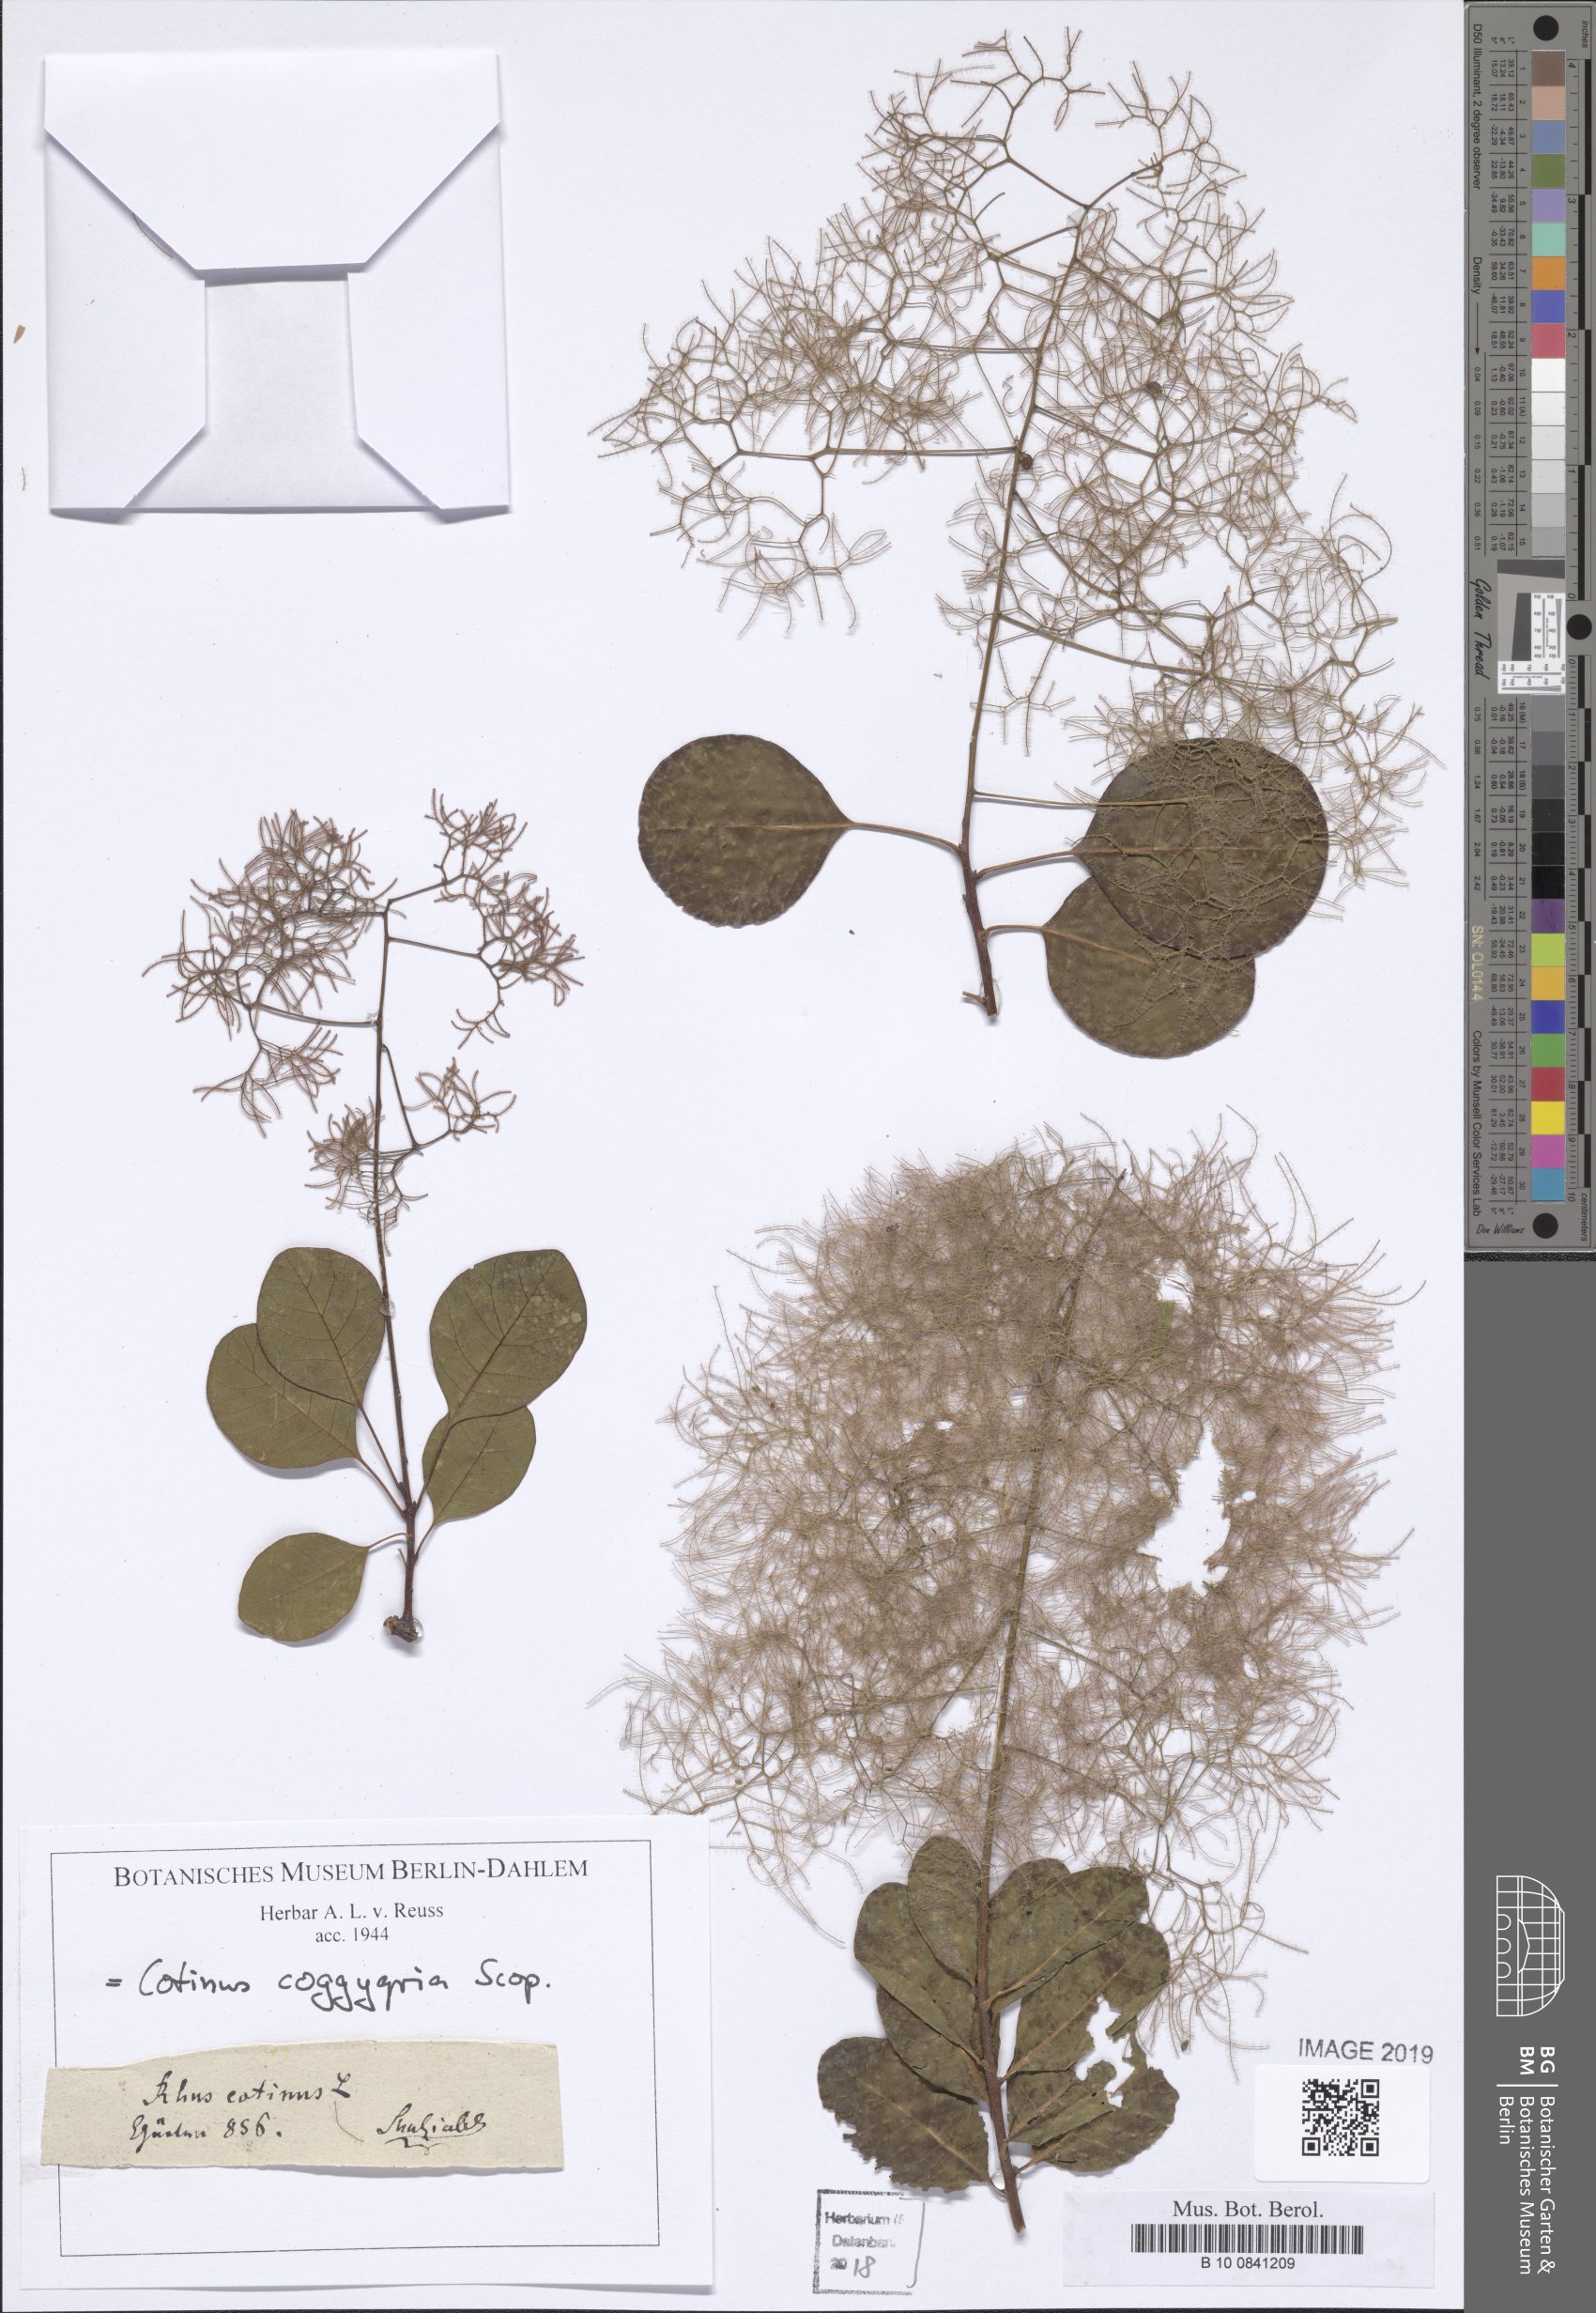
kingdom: Plantae
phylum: Tracheophyta
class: Magnoliopsida
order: Sapindales
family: Anacardiaceae
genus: Cotinus
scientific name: Cotinus coggygria
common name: Smoke-tree
